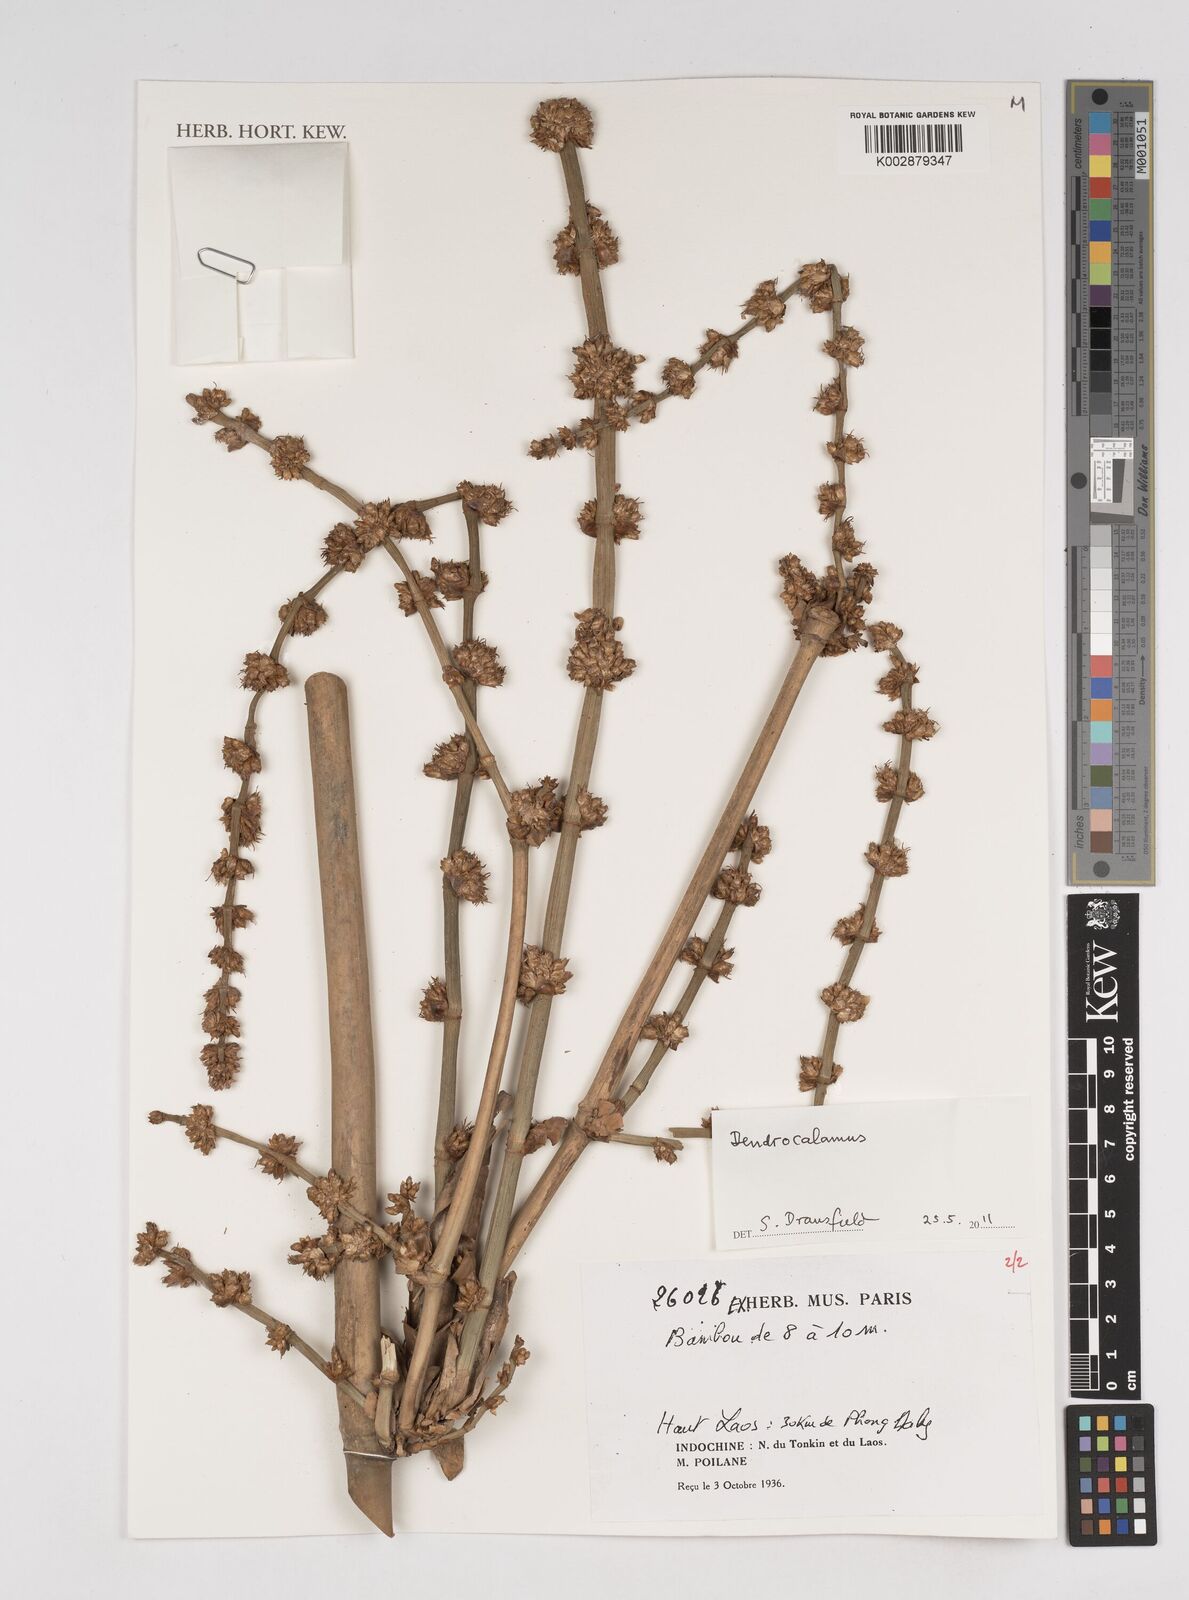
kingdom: Plantae
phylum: Tracheophyta
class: Liliopsida
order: Poales
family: Poaceae
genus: Dendrocalamus
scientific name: Dendrocalamus
